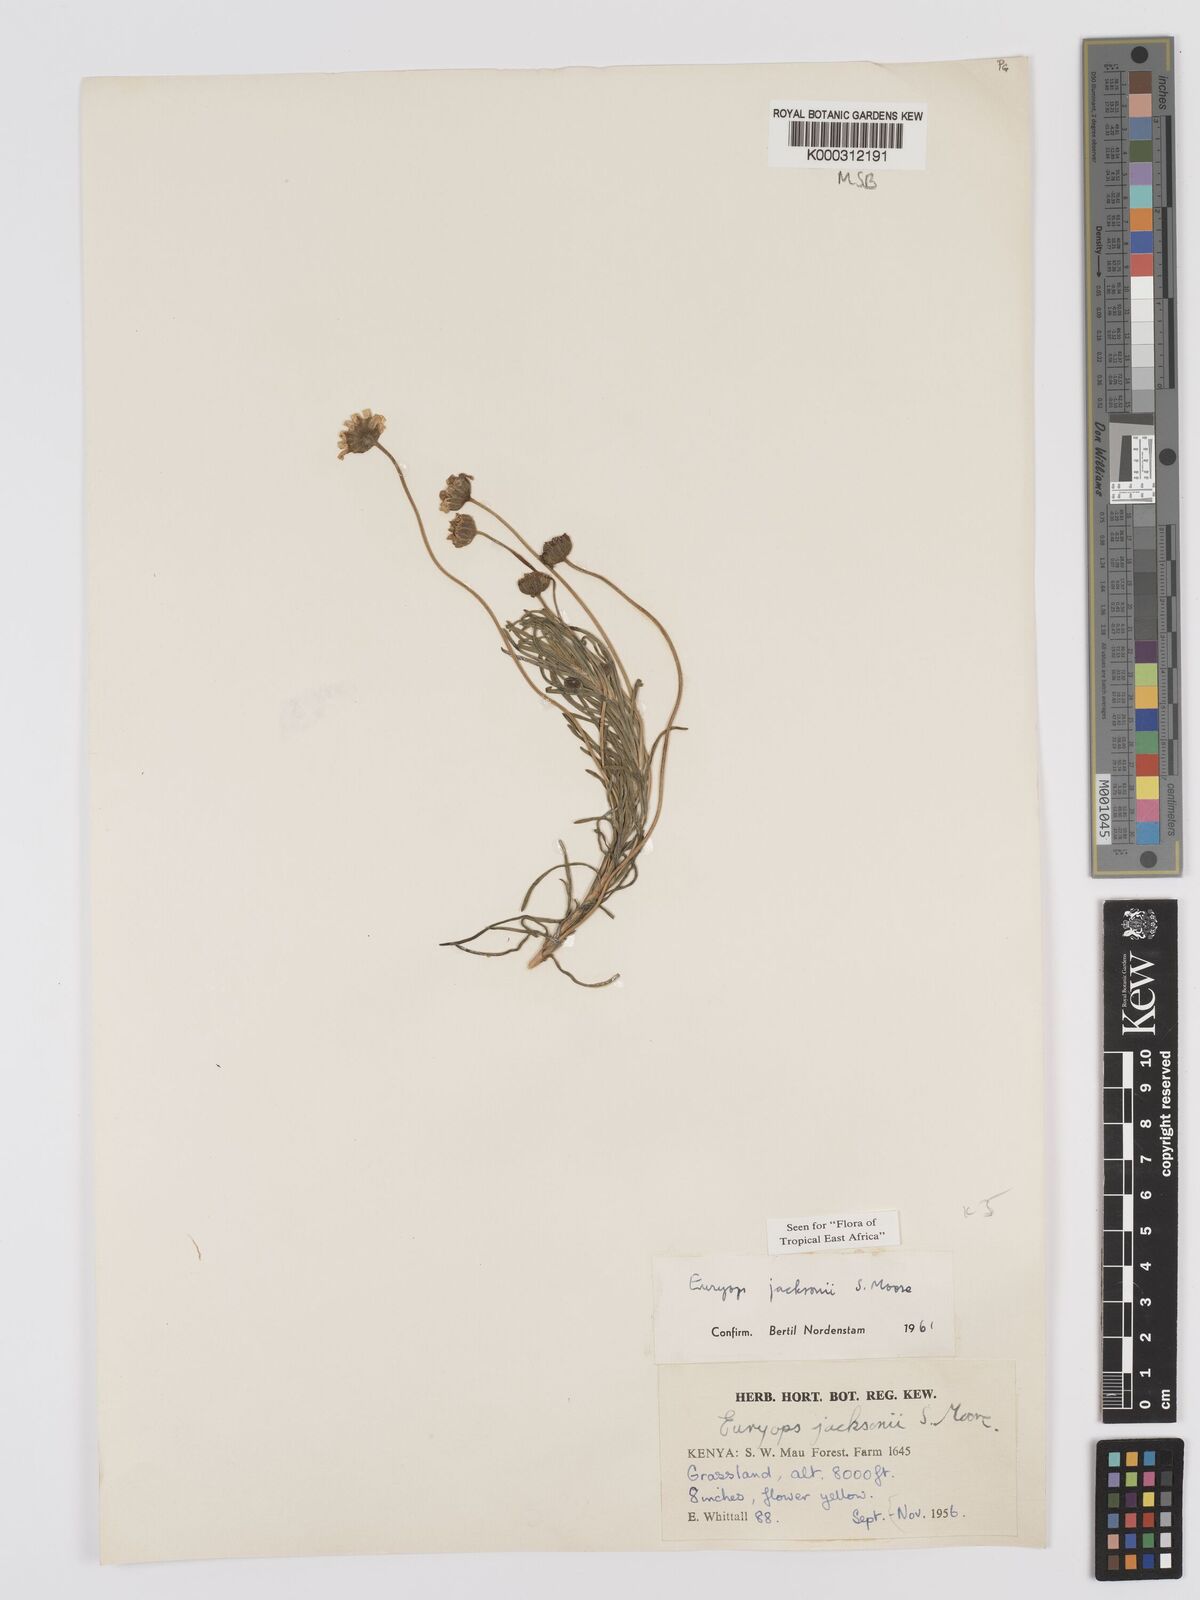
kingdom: Plantae
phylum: Tracheophyta
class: Magnoliopsida
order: Asterales
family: Asteraceae
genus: Euryops
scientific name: Euryops jacksonii
